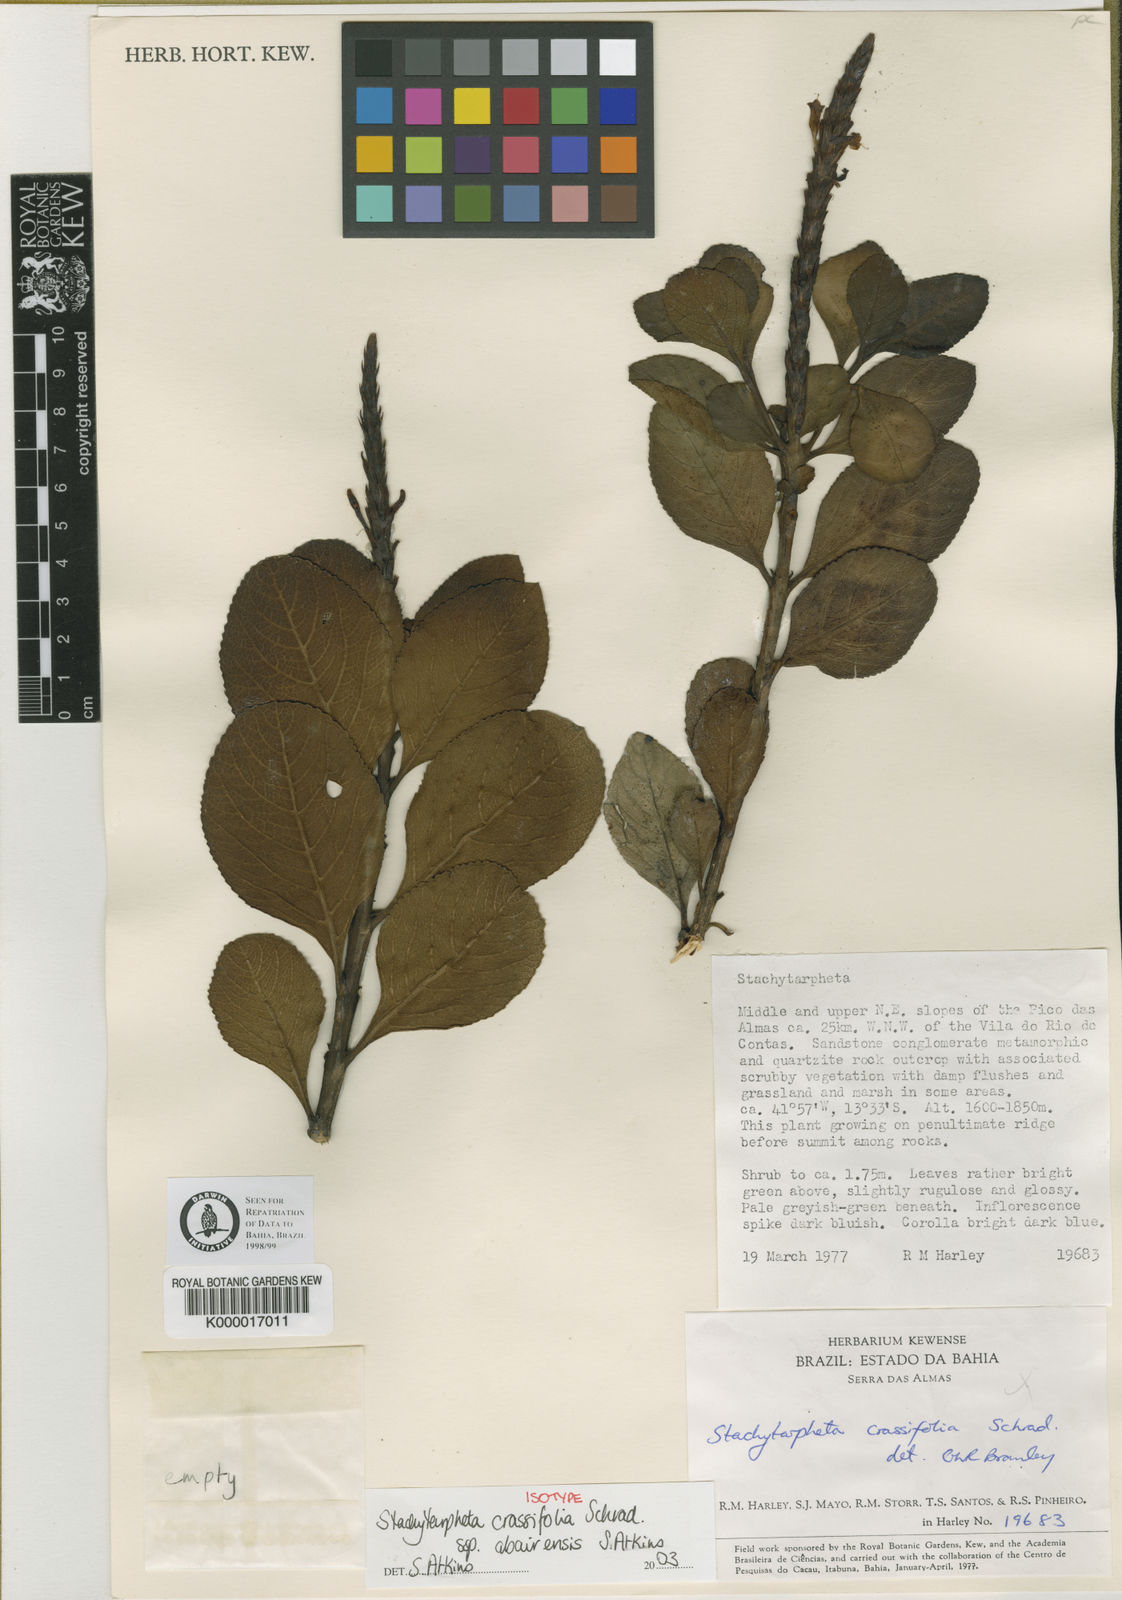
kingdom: Plantae
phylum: Tracheophyta
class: Magnoliopsida
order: Lamiales
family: Verbenaceae
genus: Stachytarpheta
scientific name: Stachytarpheta crassifolia
